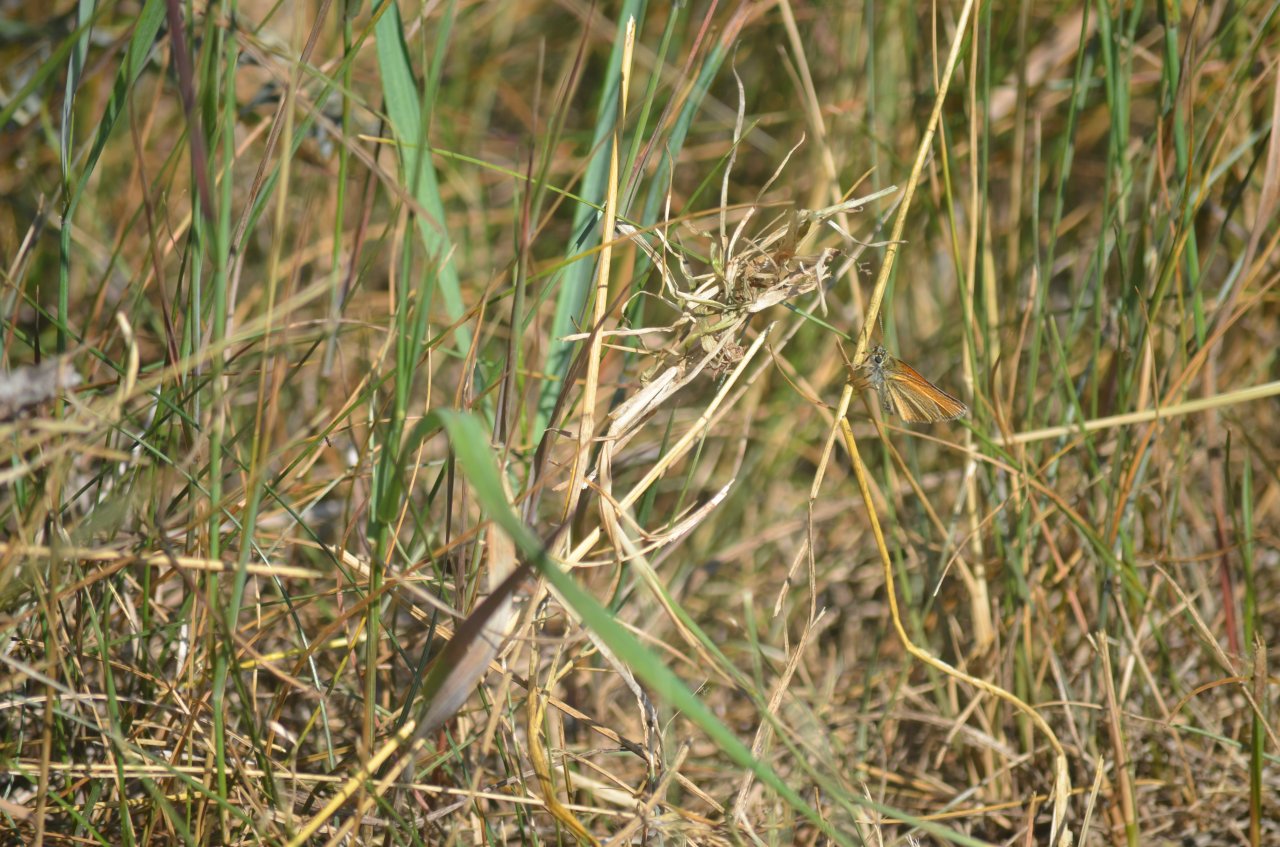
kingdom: Animalia
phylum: Arthropoda
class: Insecta
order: Lepidoptera
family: Hesperiidae
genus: Thymelicus
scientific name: Thymelicus lineola
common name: European Skipper
